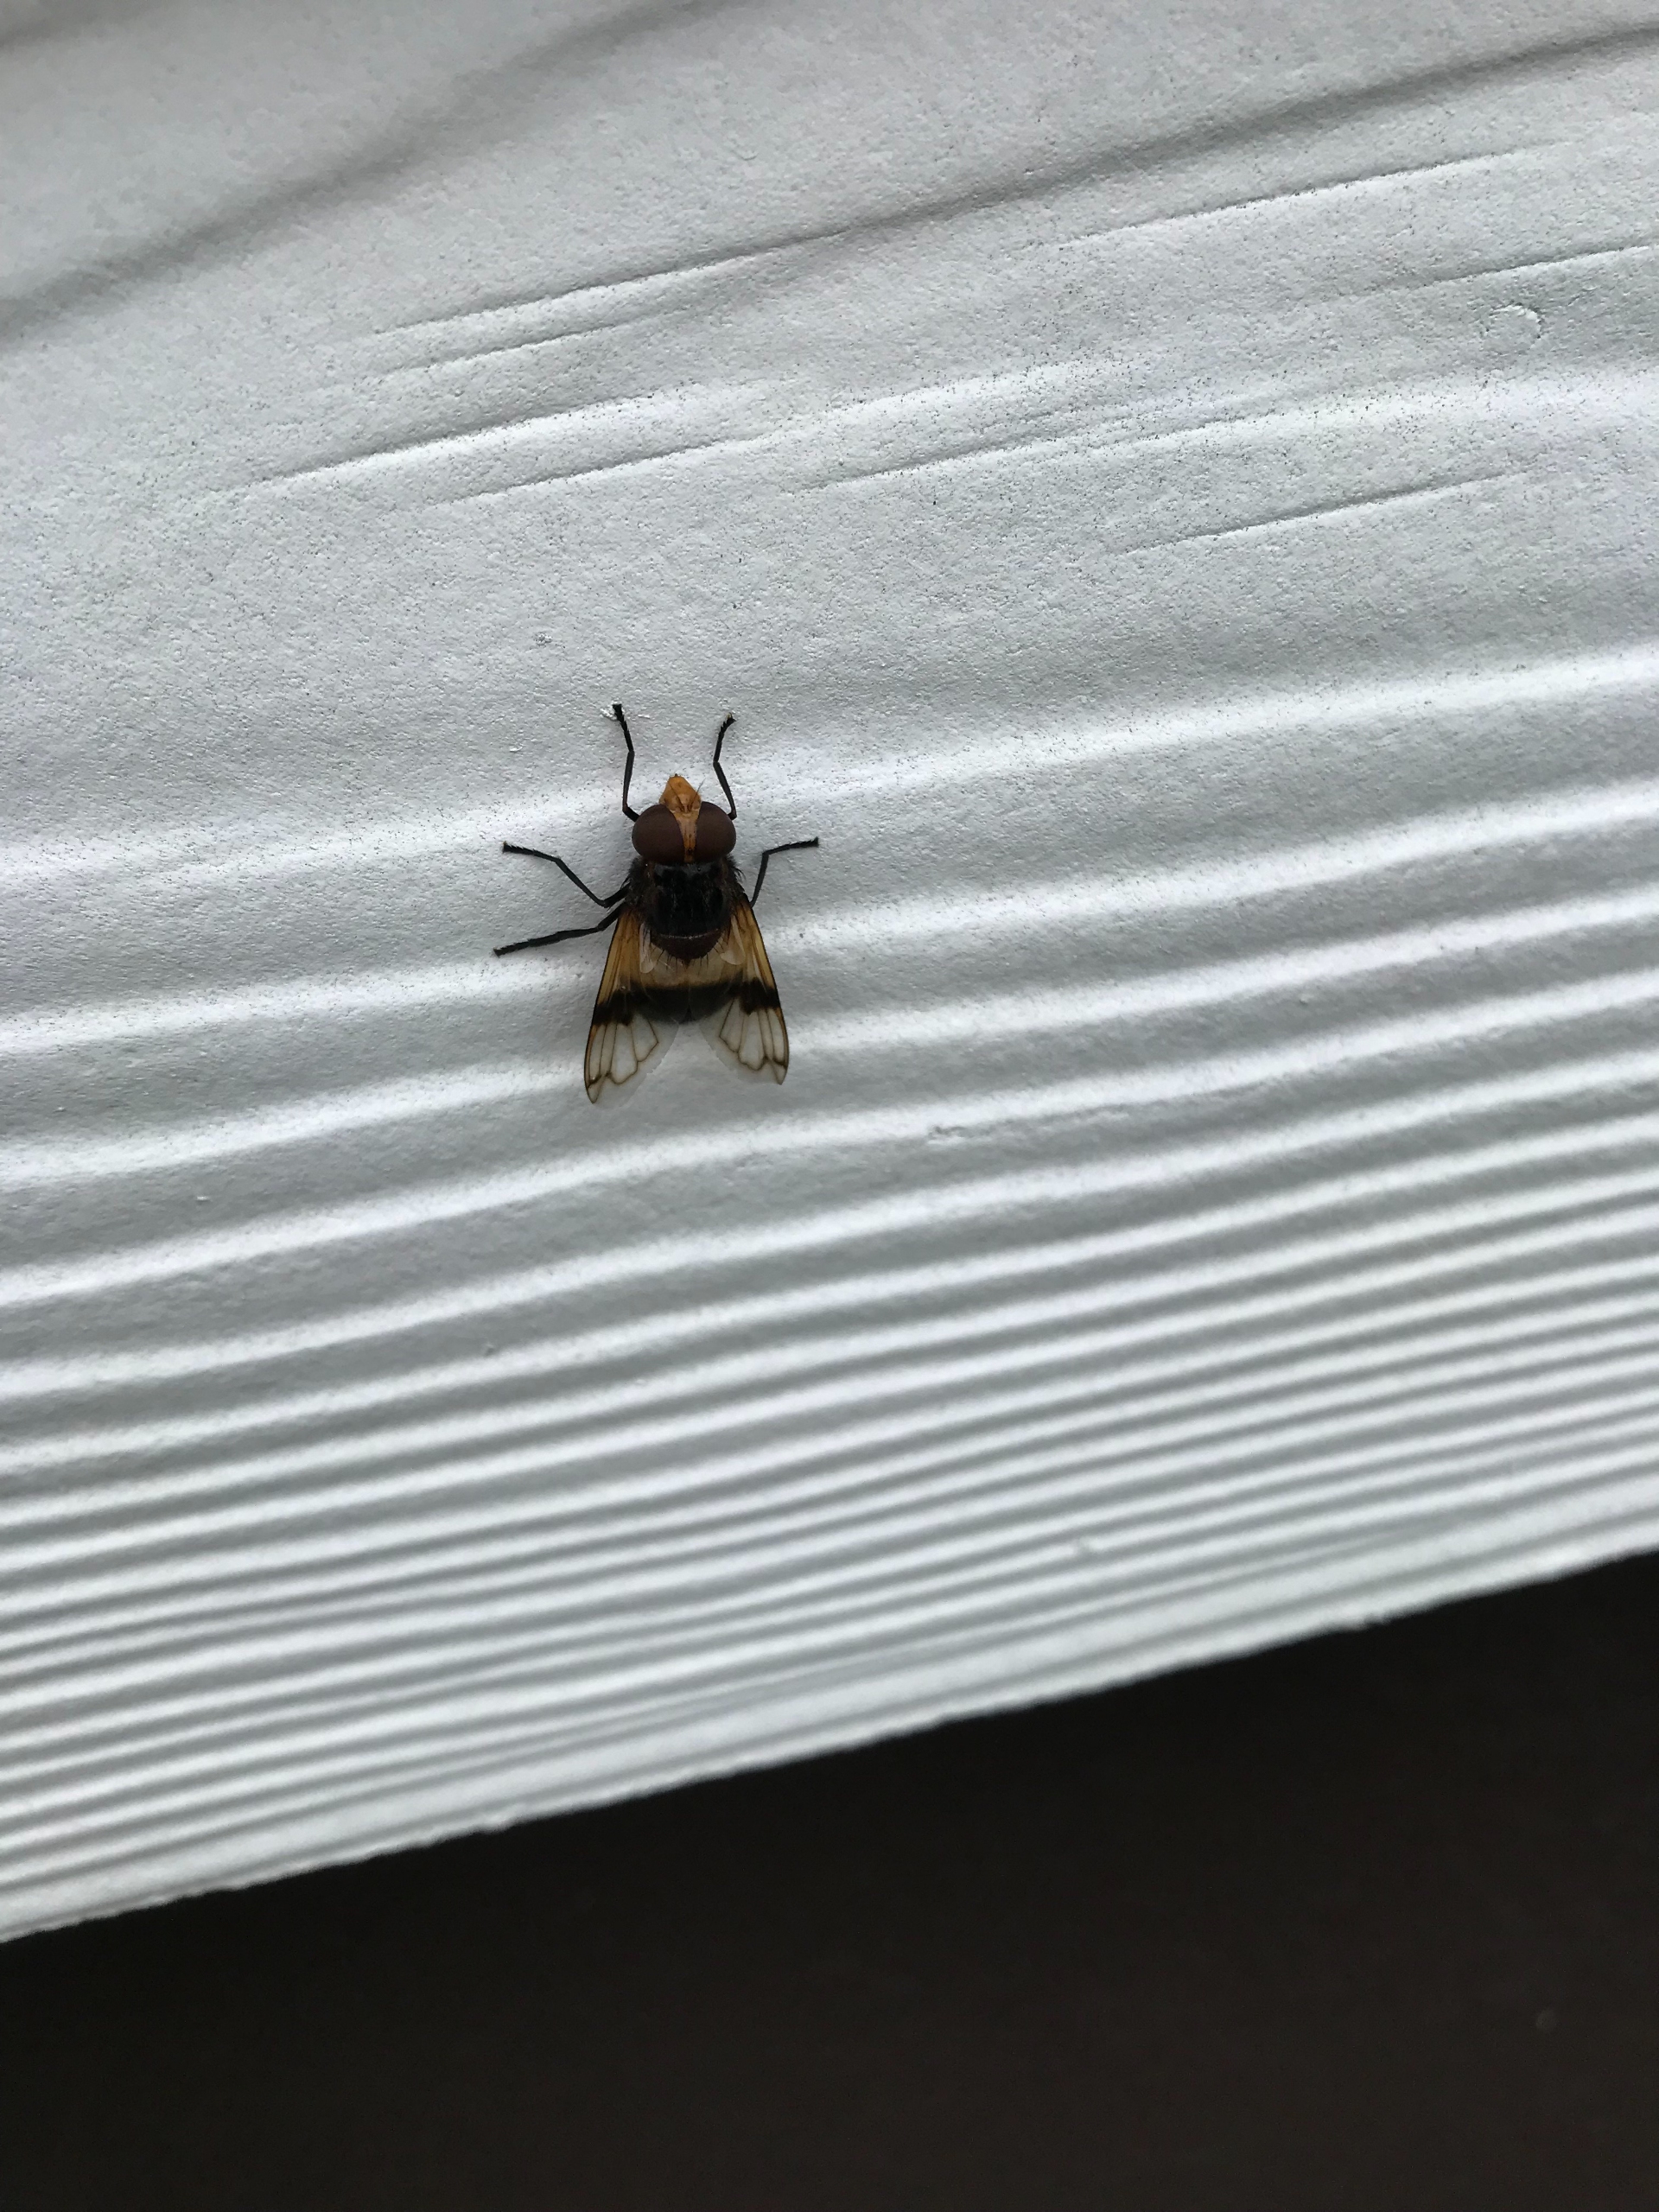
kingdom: Animalia
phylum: Arthropoda
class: Insecta
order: Diptera
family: Syrphidae
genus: Volucella
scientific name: Volucella pellucens
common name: Hvidbåndet humlesvirreflue
